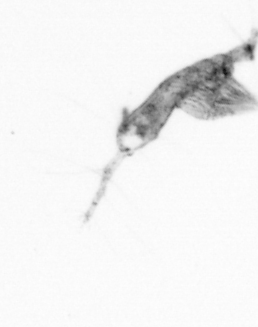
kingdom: Animalia
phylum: Arthropoda
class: Copepoda
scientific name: Copepoda
